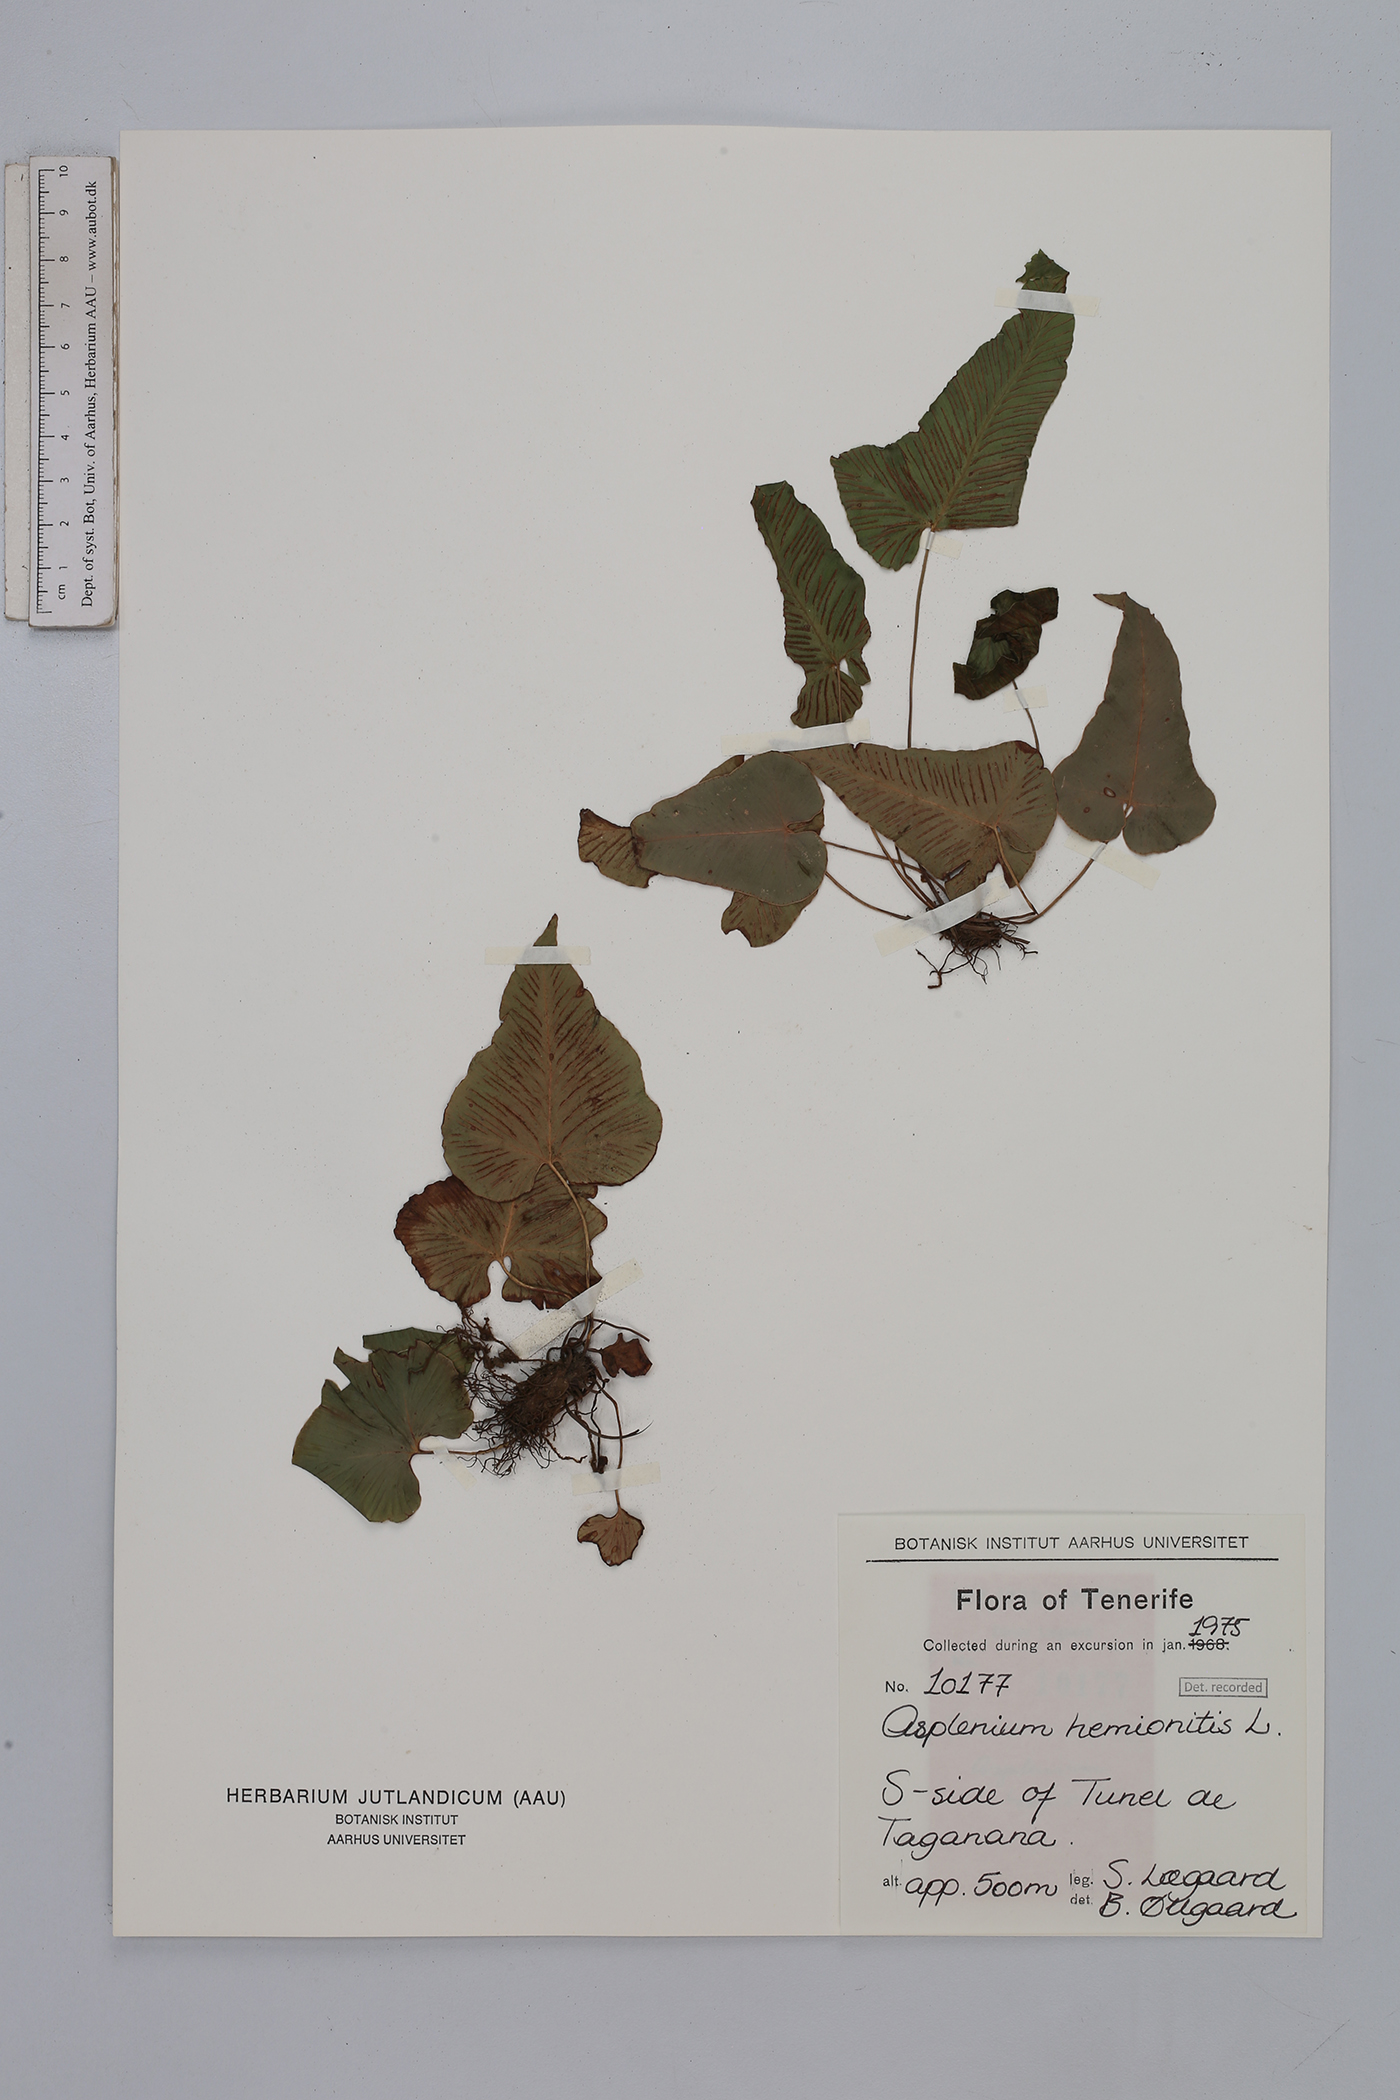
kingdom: Plantae
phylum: Tracheophyta
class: Polypodiopsida
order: Polypodiales
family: Aspleniaceae
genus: Asplenium
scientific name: Asplenium hemionitis
